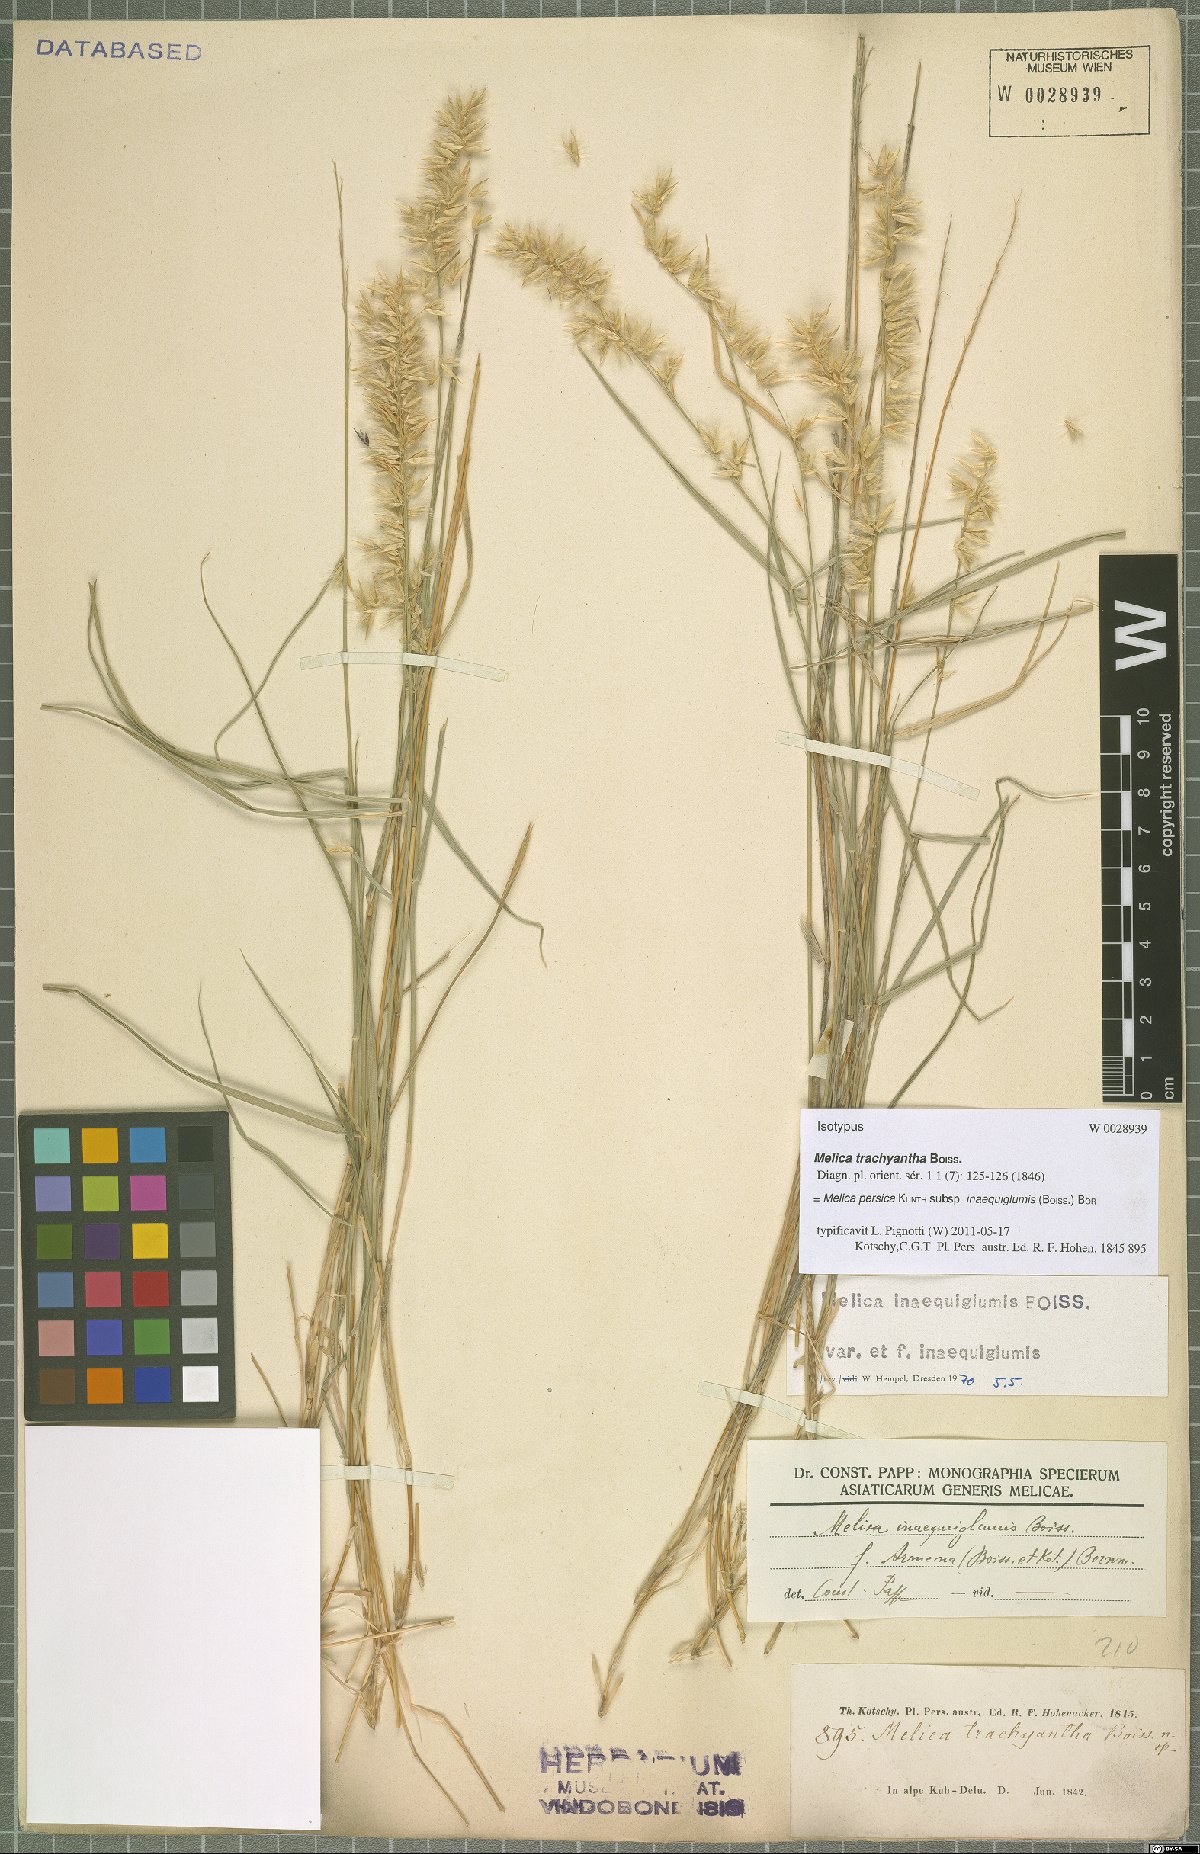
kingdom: Plantae
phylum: Tracheophyta
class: Liliopsida
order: Poales
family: Poaceae
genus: Melica
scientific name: Melica persica
